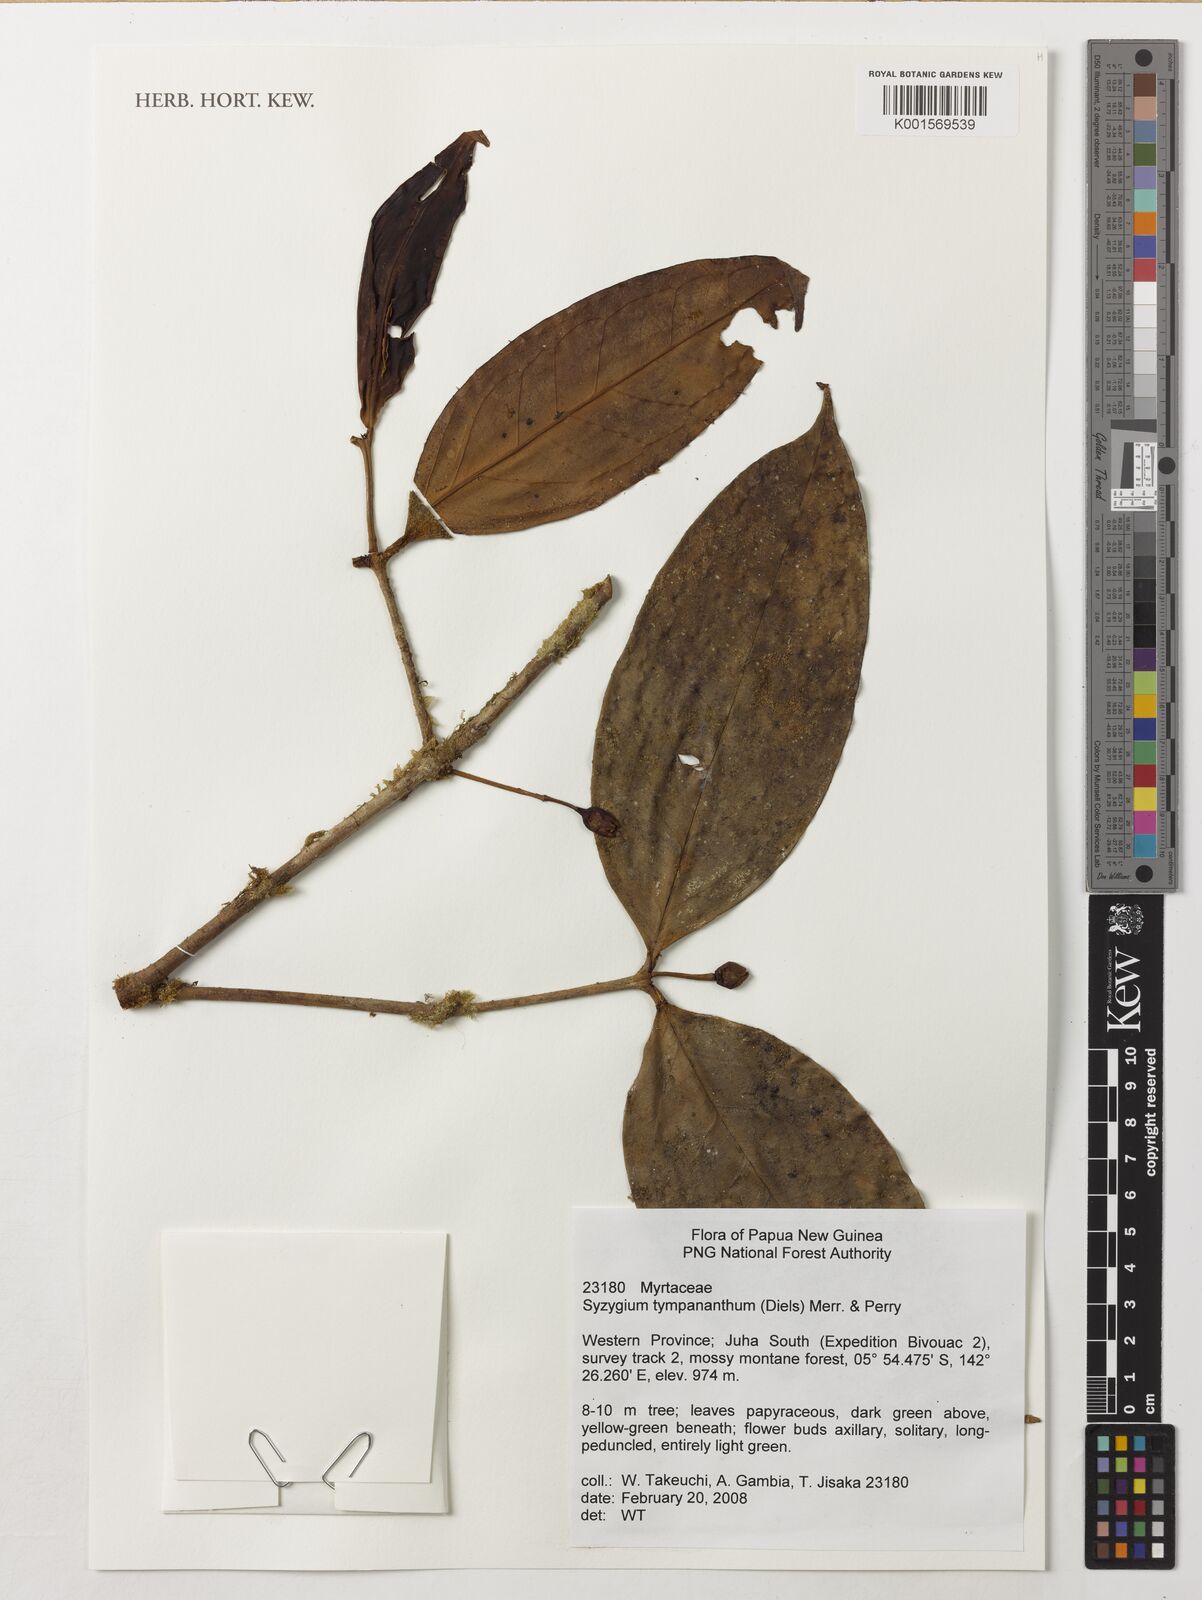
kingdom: Plantae
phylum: Tracheophyta
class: Magnoliopsida
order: Myrtales
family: Myrtaceae
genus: Syzygium
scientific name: Syzygium tympananthum
